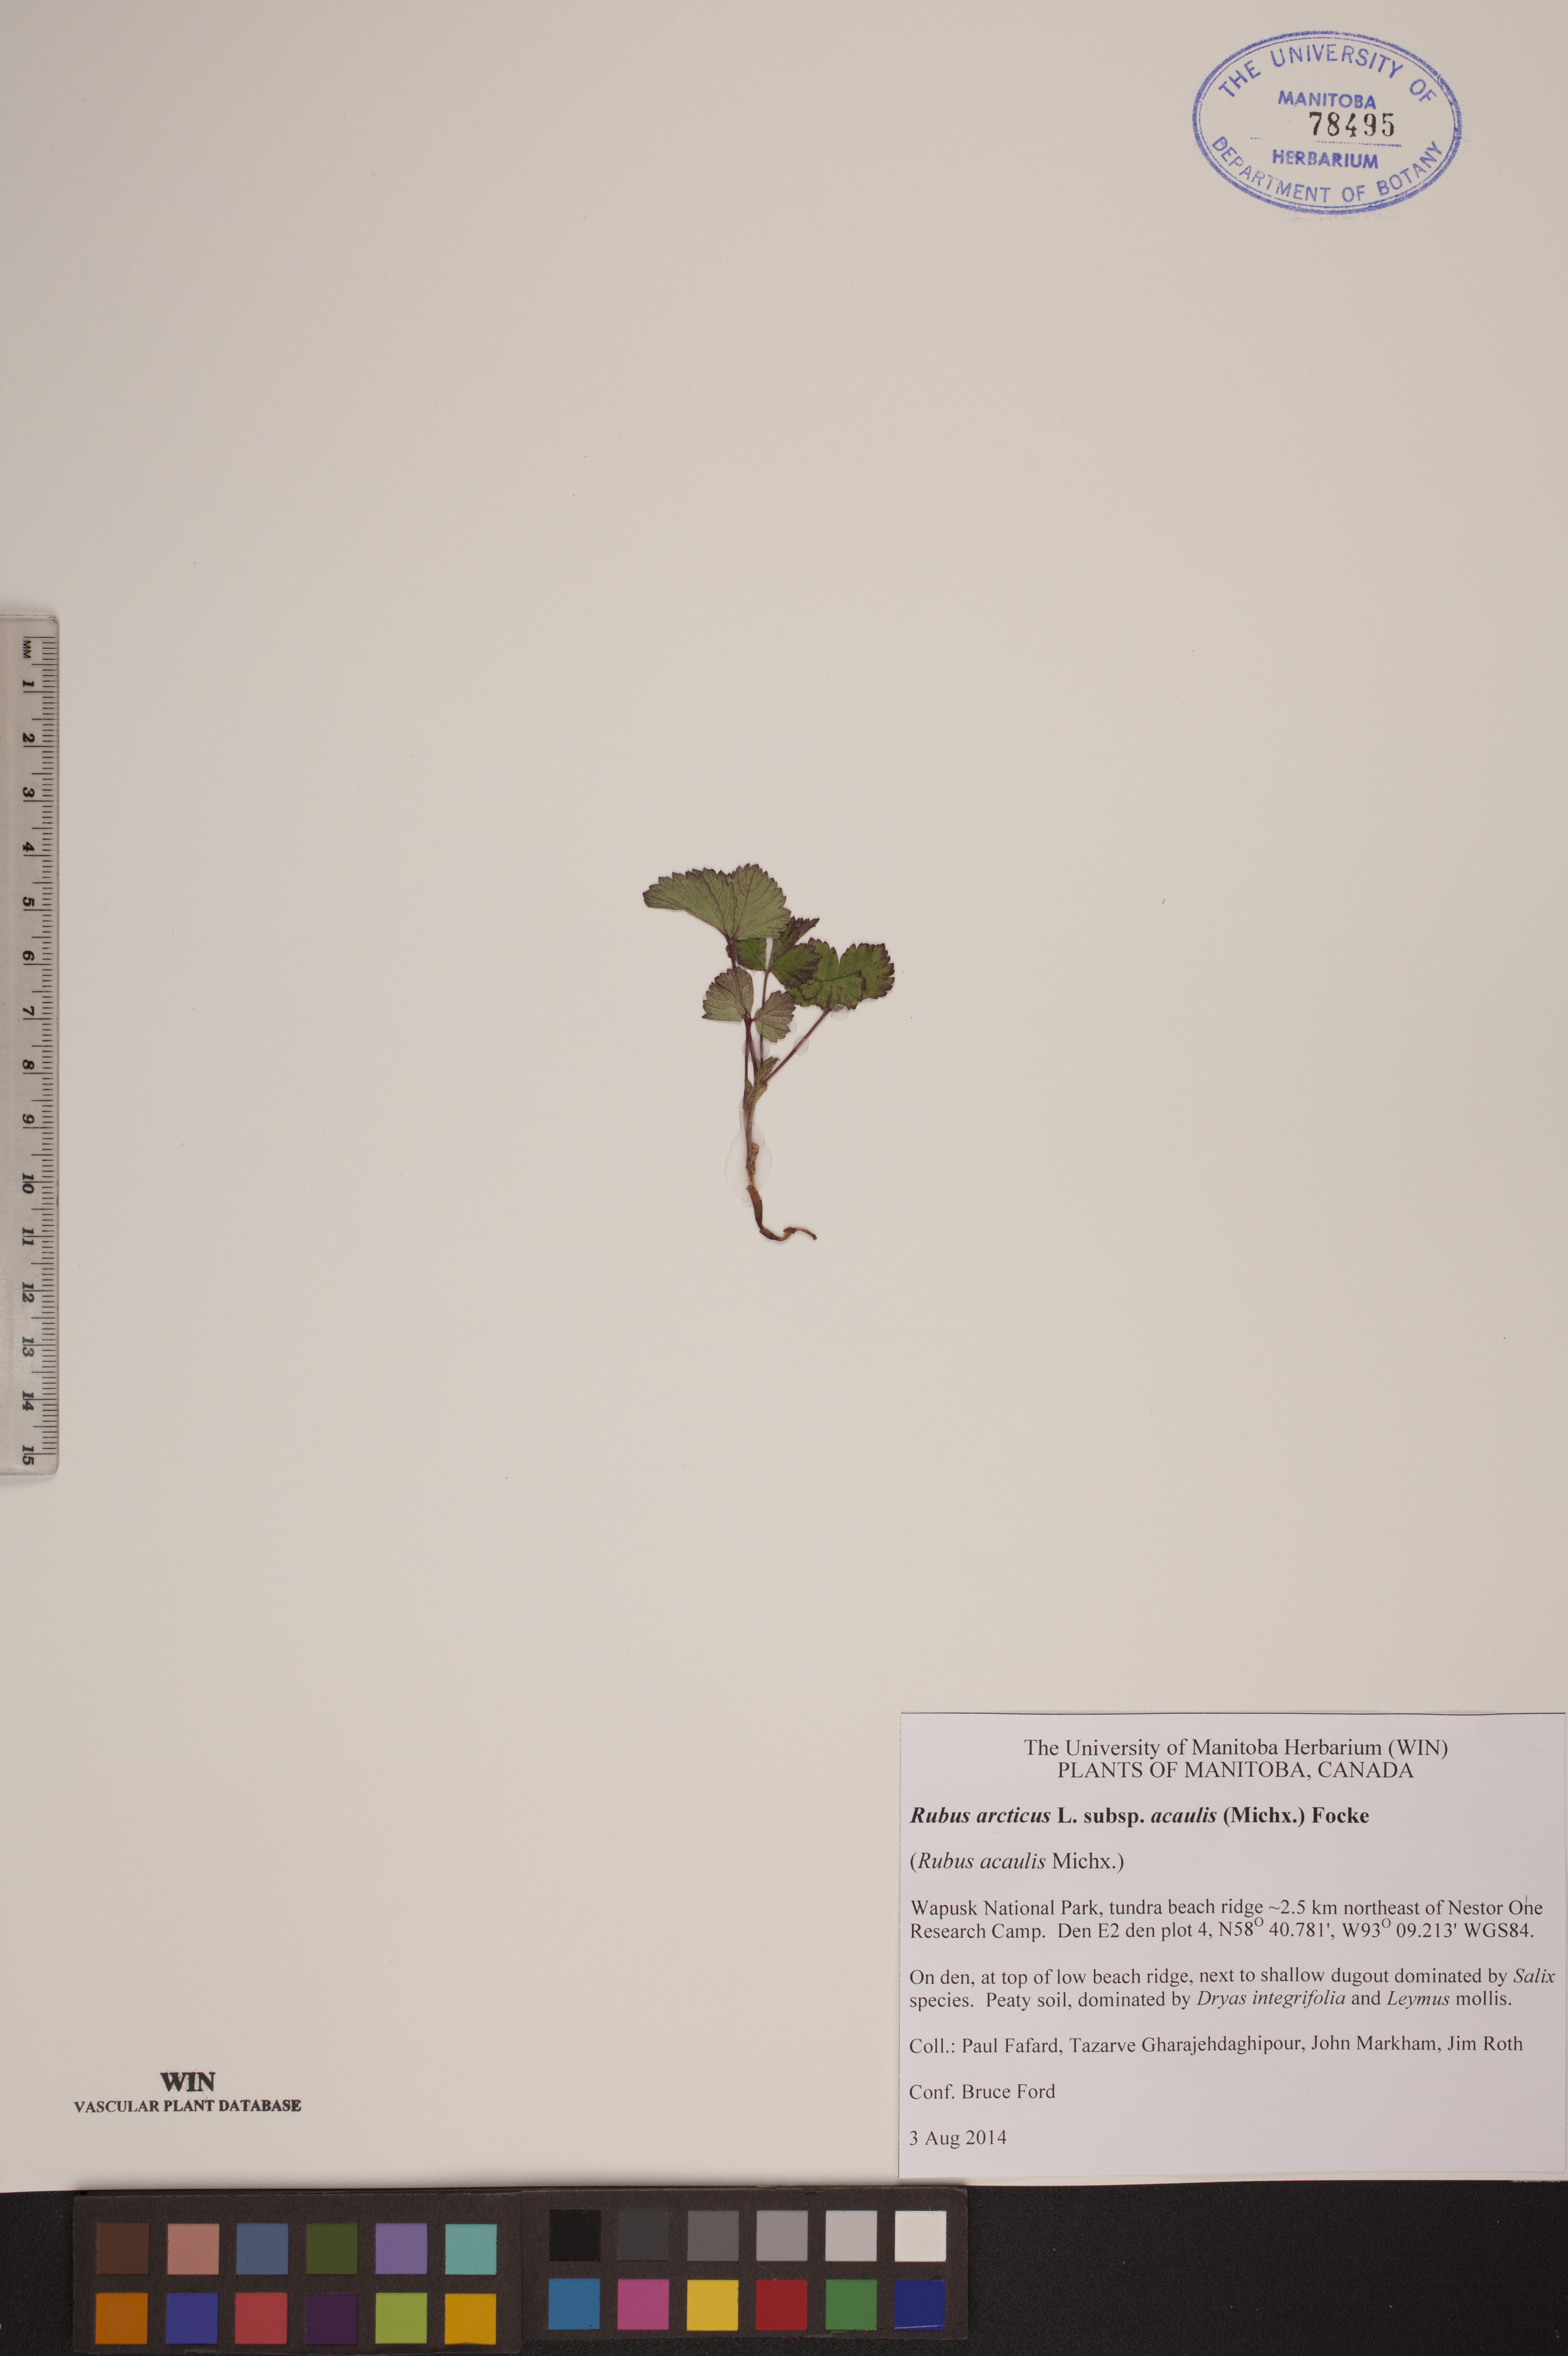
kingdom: Plantae
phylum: Tracheophyta
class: Magnoliopsida
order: Rosales
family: Rosaceae
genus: Rubus
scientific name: Rubus arcticus
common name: Arctic bramble
